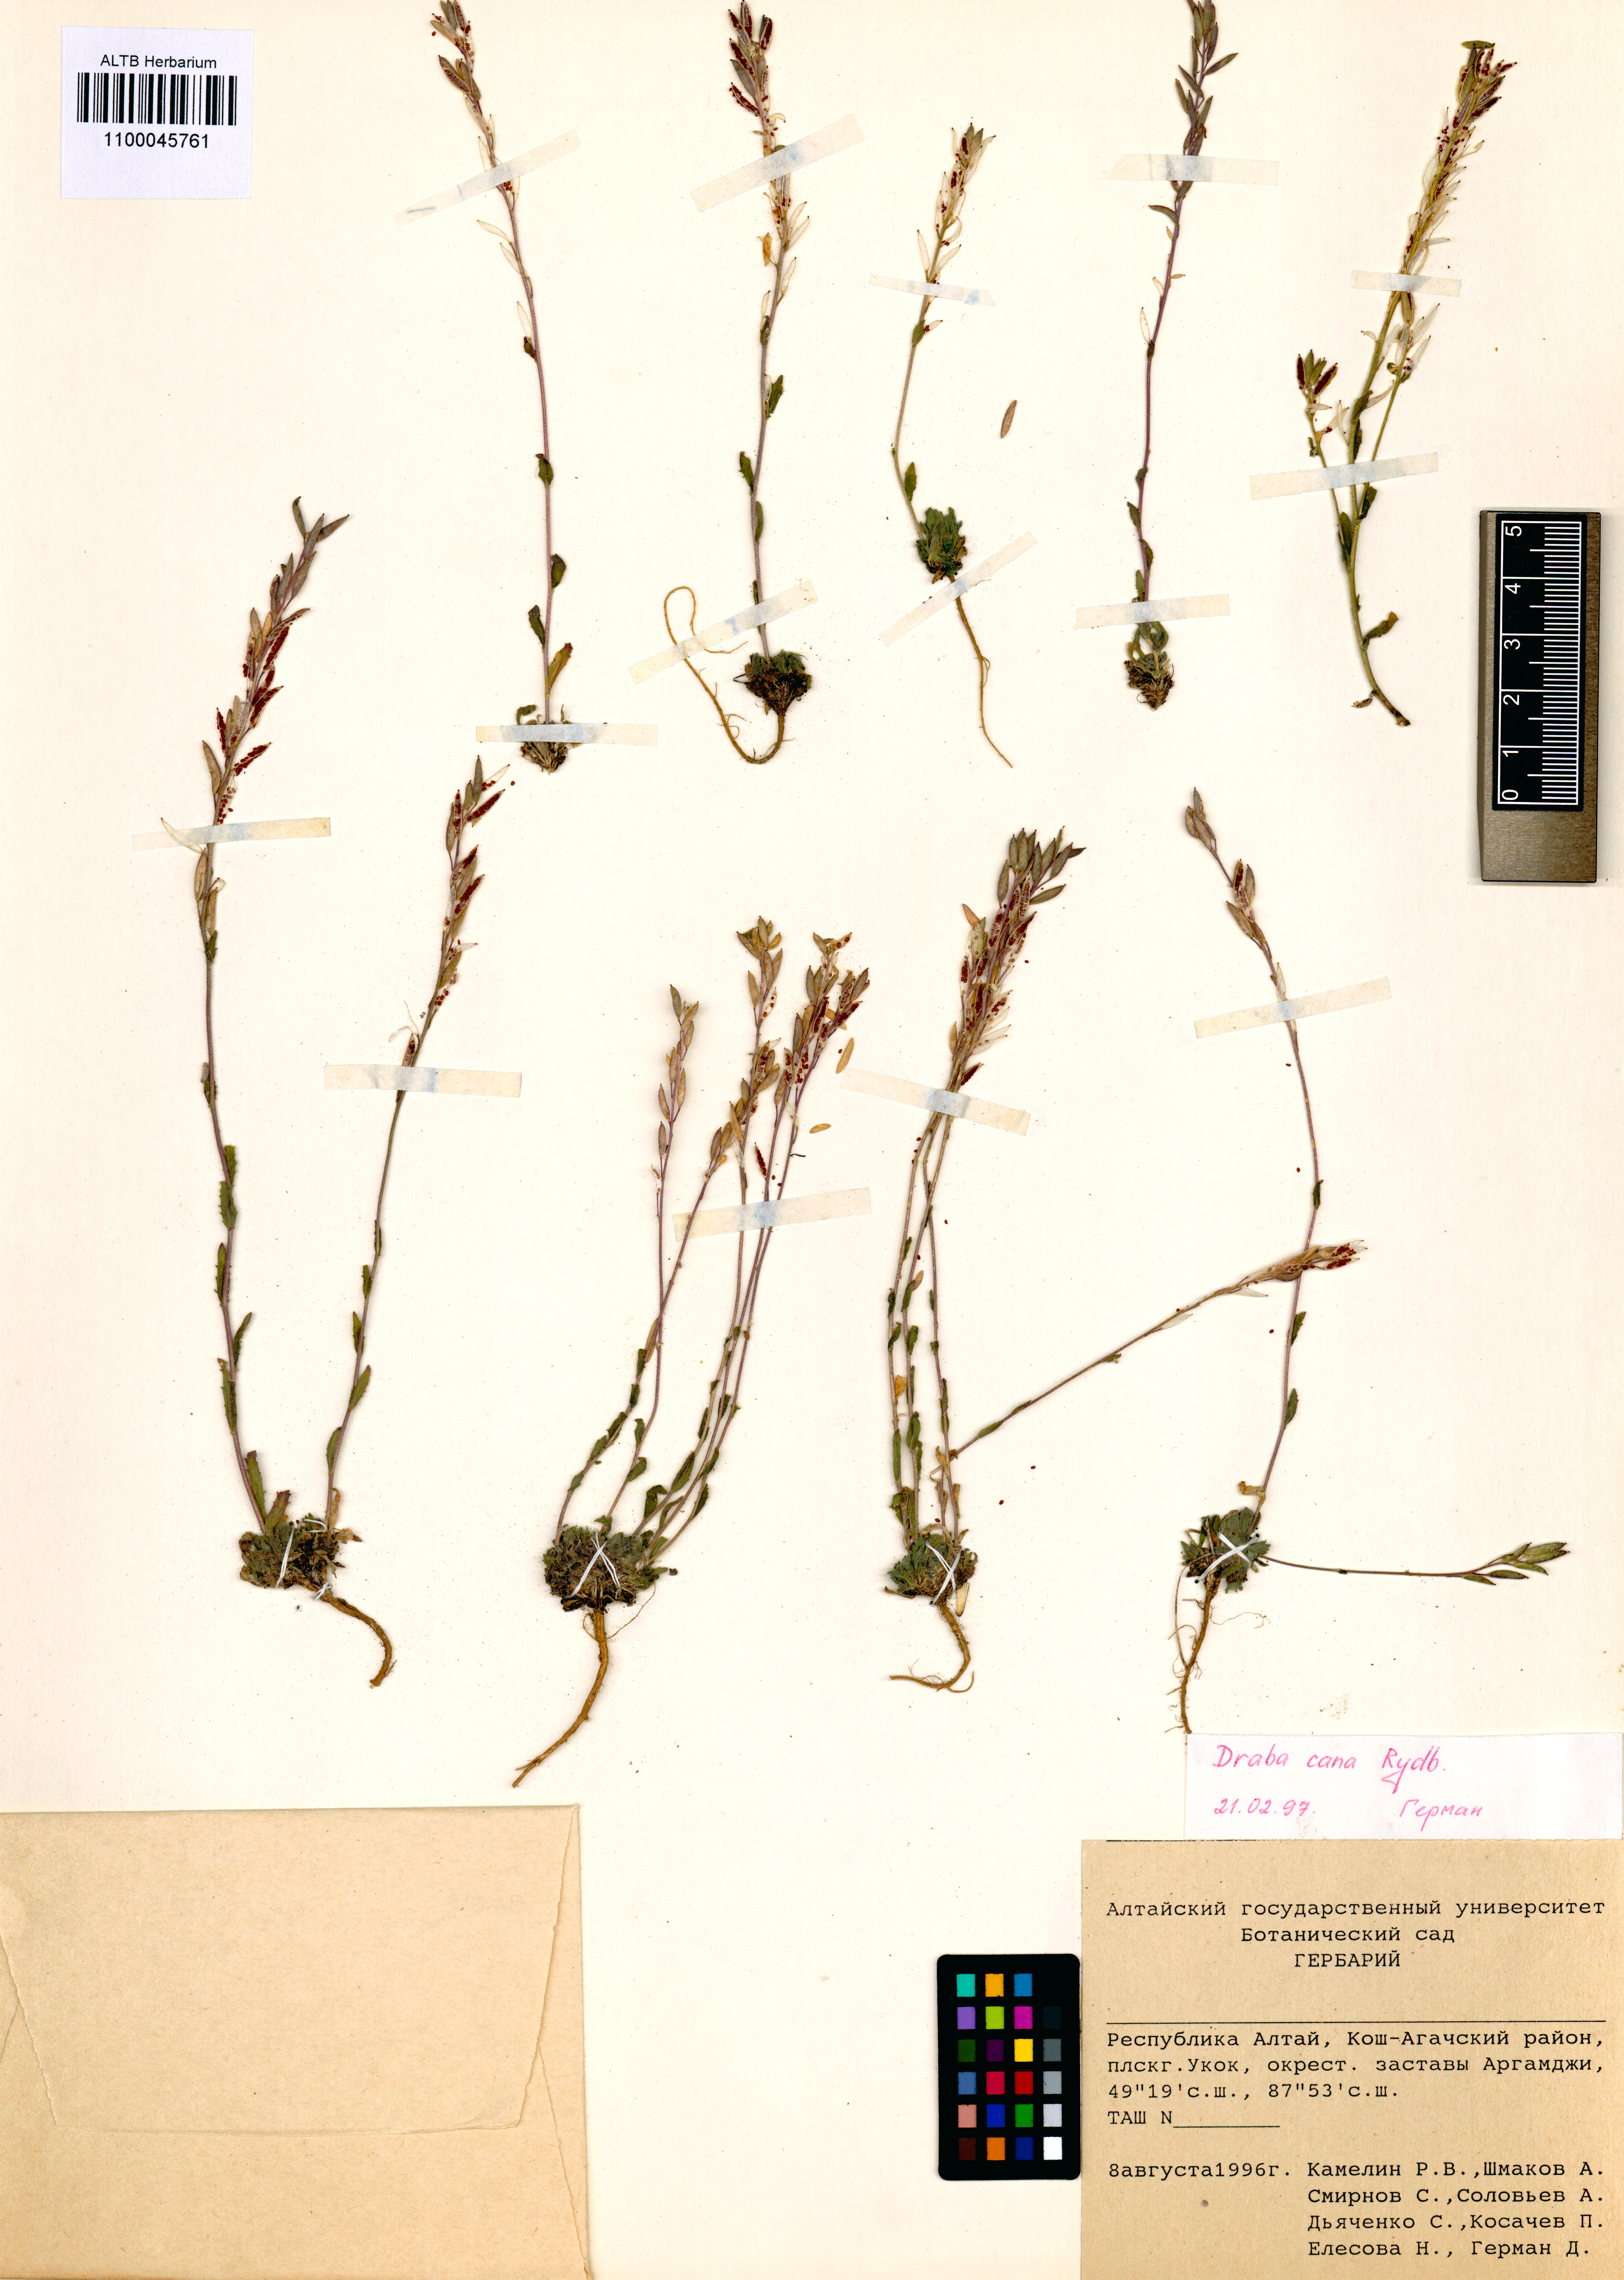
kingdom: Plantae
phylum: Tracheophyta
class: Magnoliopsida
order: Brassicales
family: Brassicaceae
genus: Draba
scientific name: Draba cana
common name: Hoary draba
